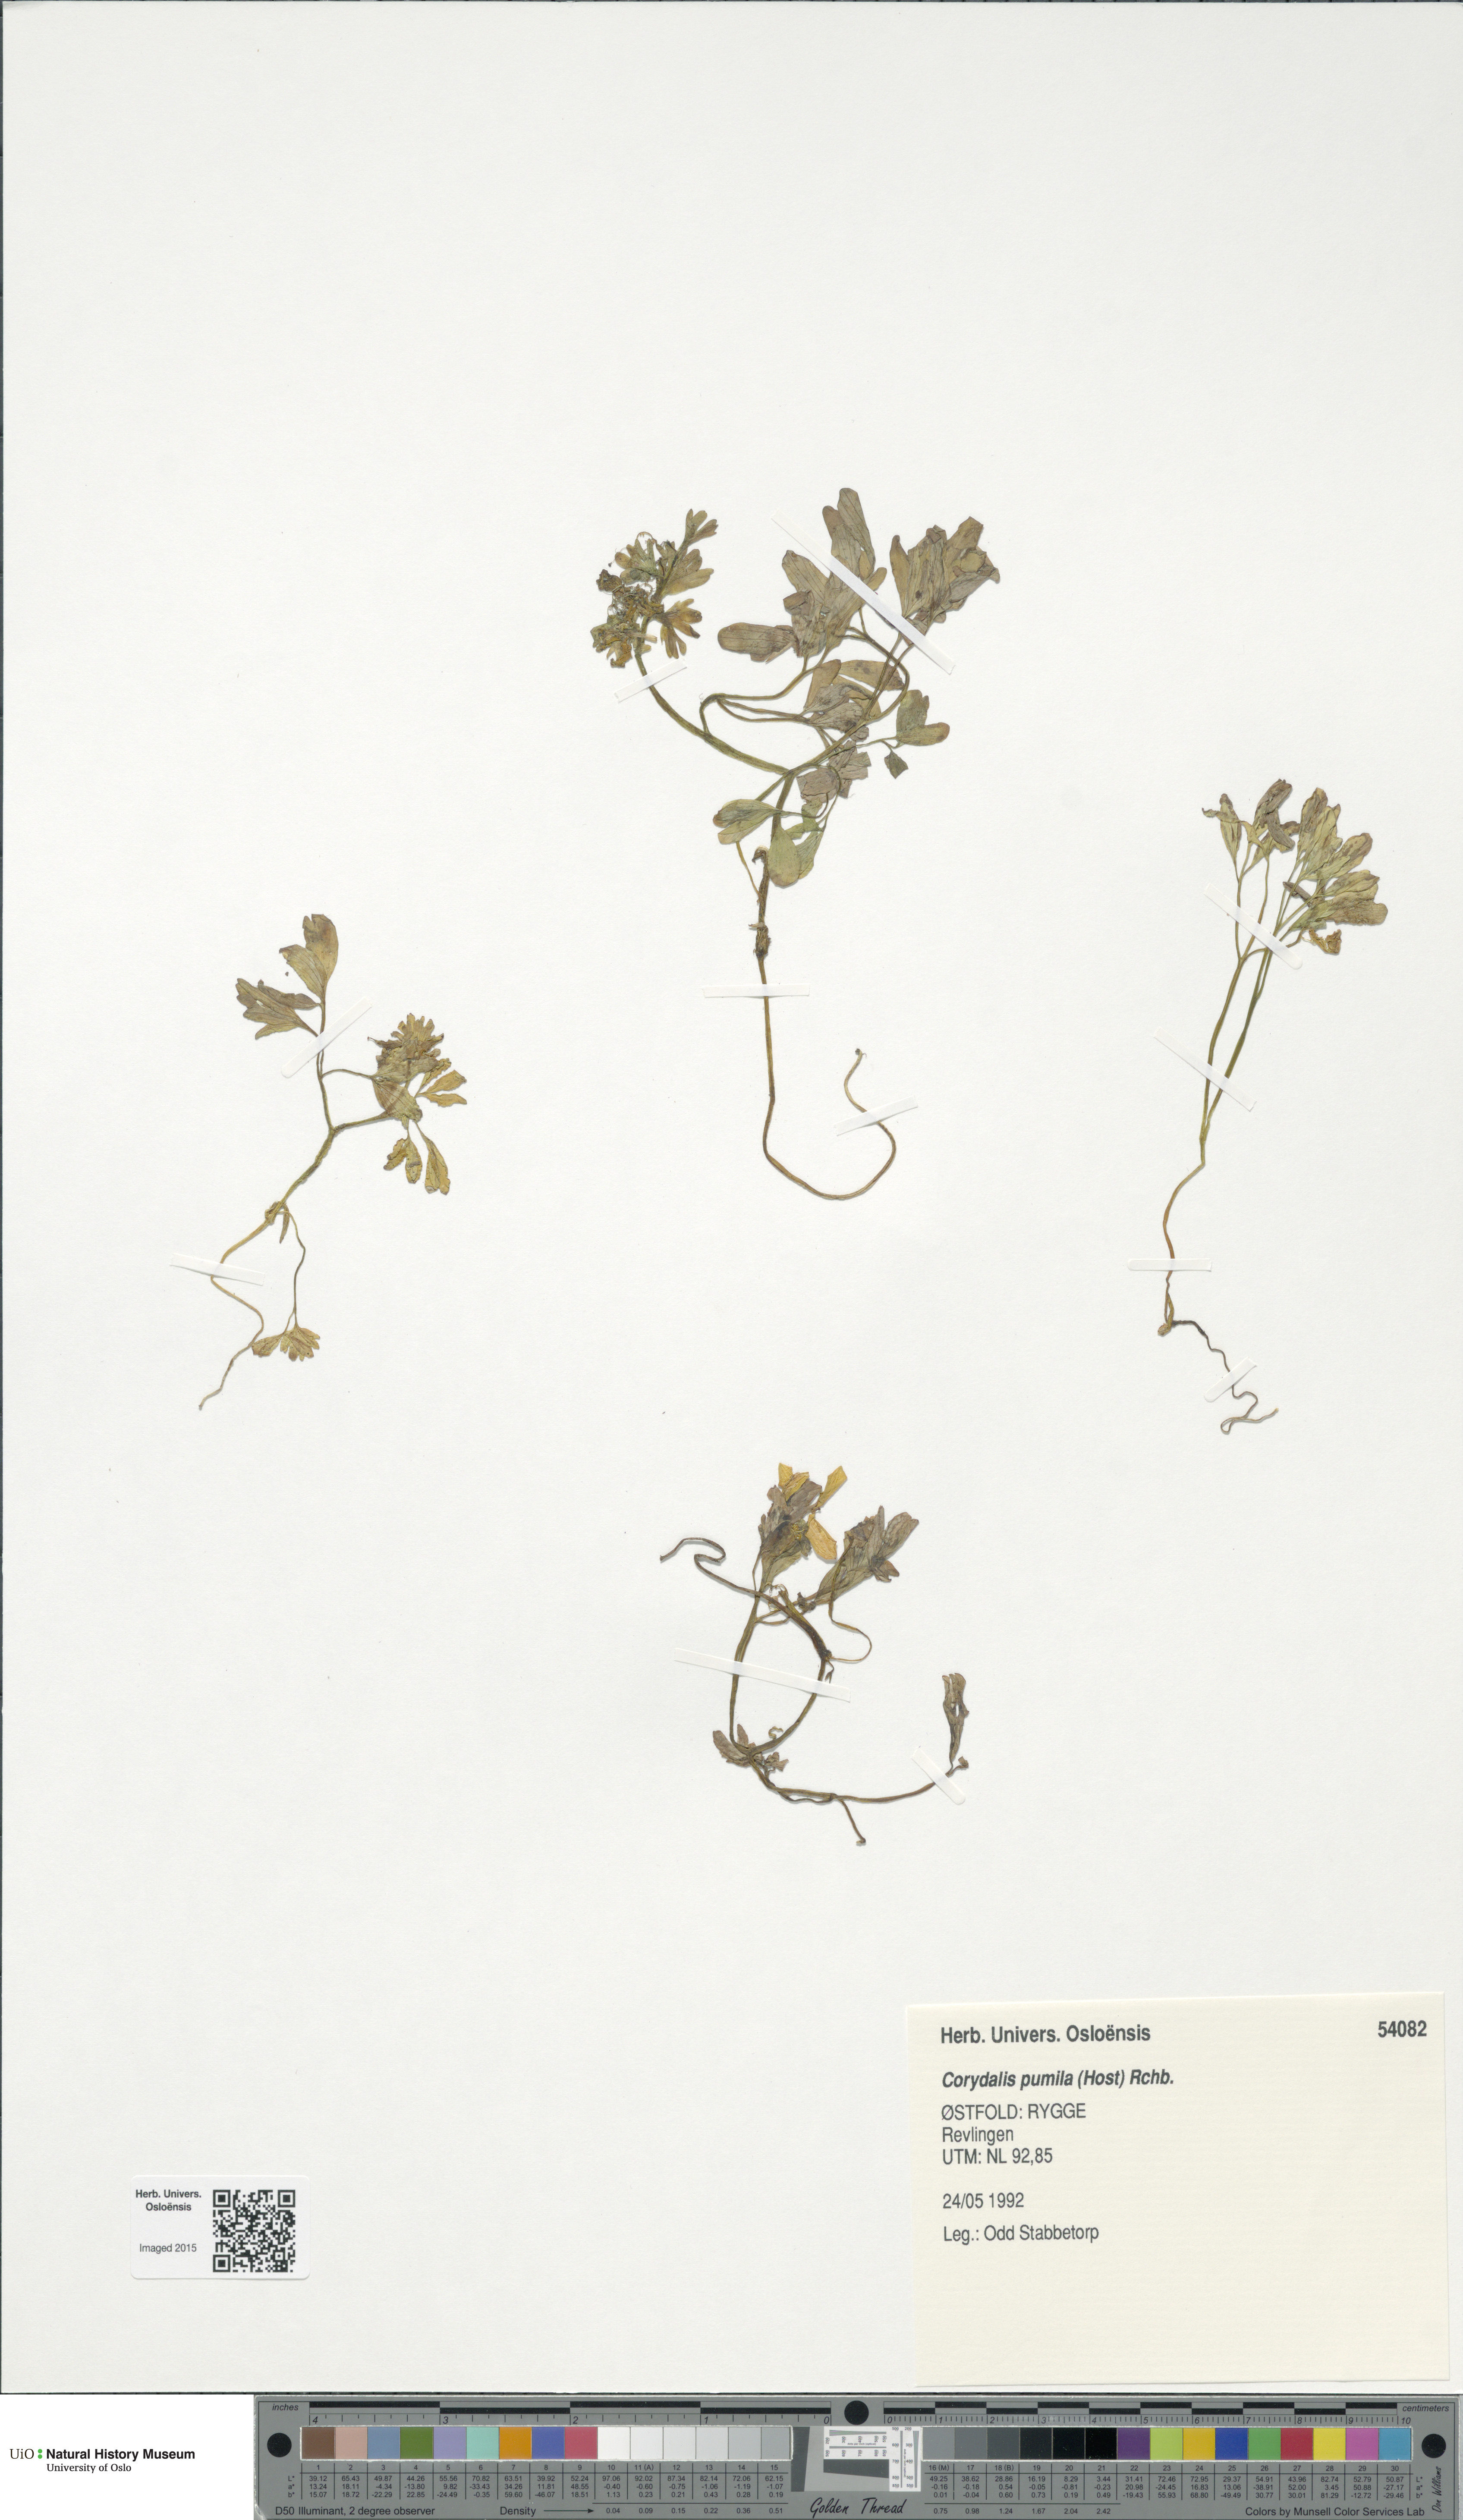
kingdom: Plantae
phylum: Tracheophyta
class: Magnoliopsida
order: Ranunculales
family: Papaveraceae
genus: Corydalis
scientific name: Corydalis pumila
